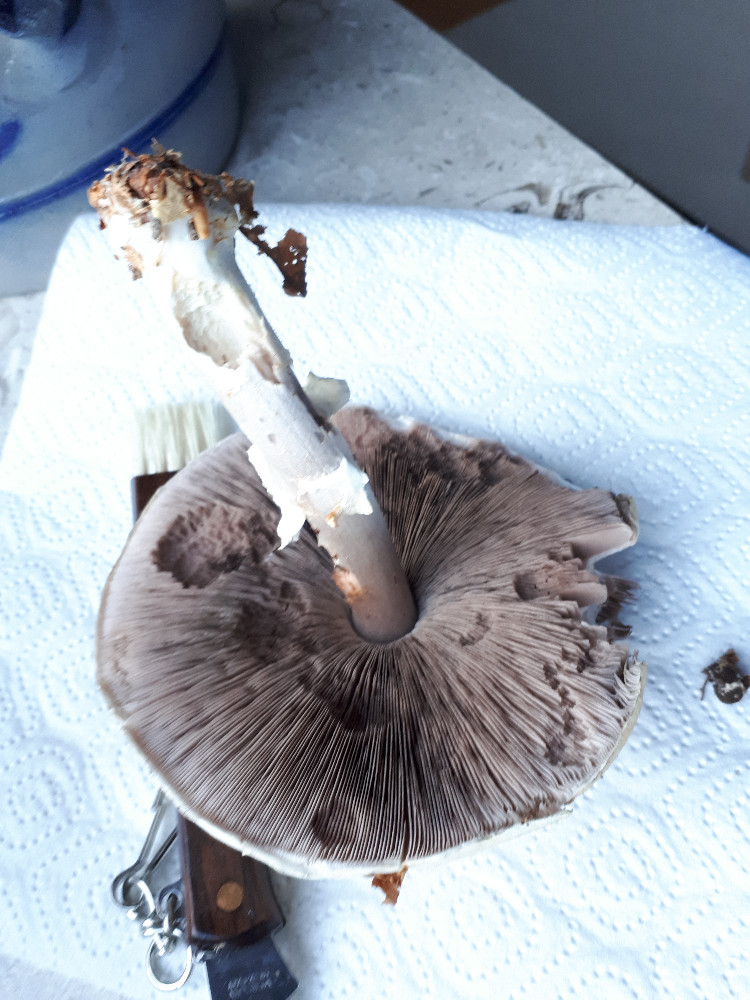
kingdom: Fungi
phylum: Basidiomycota
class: Agaricomycetes
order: Agaricales
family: Agaricaceae
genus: Agaricus
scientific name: Agaricus
